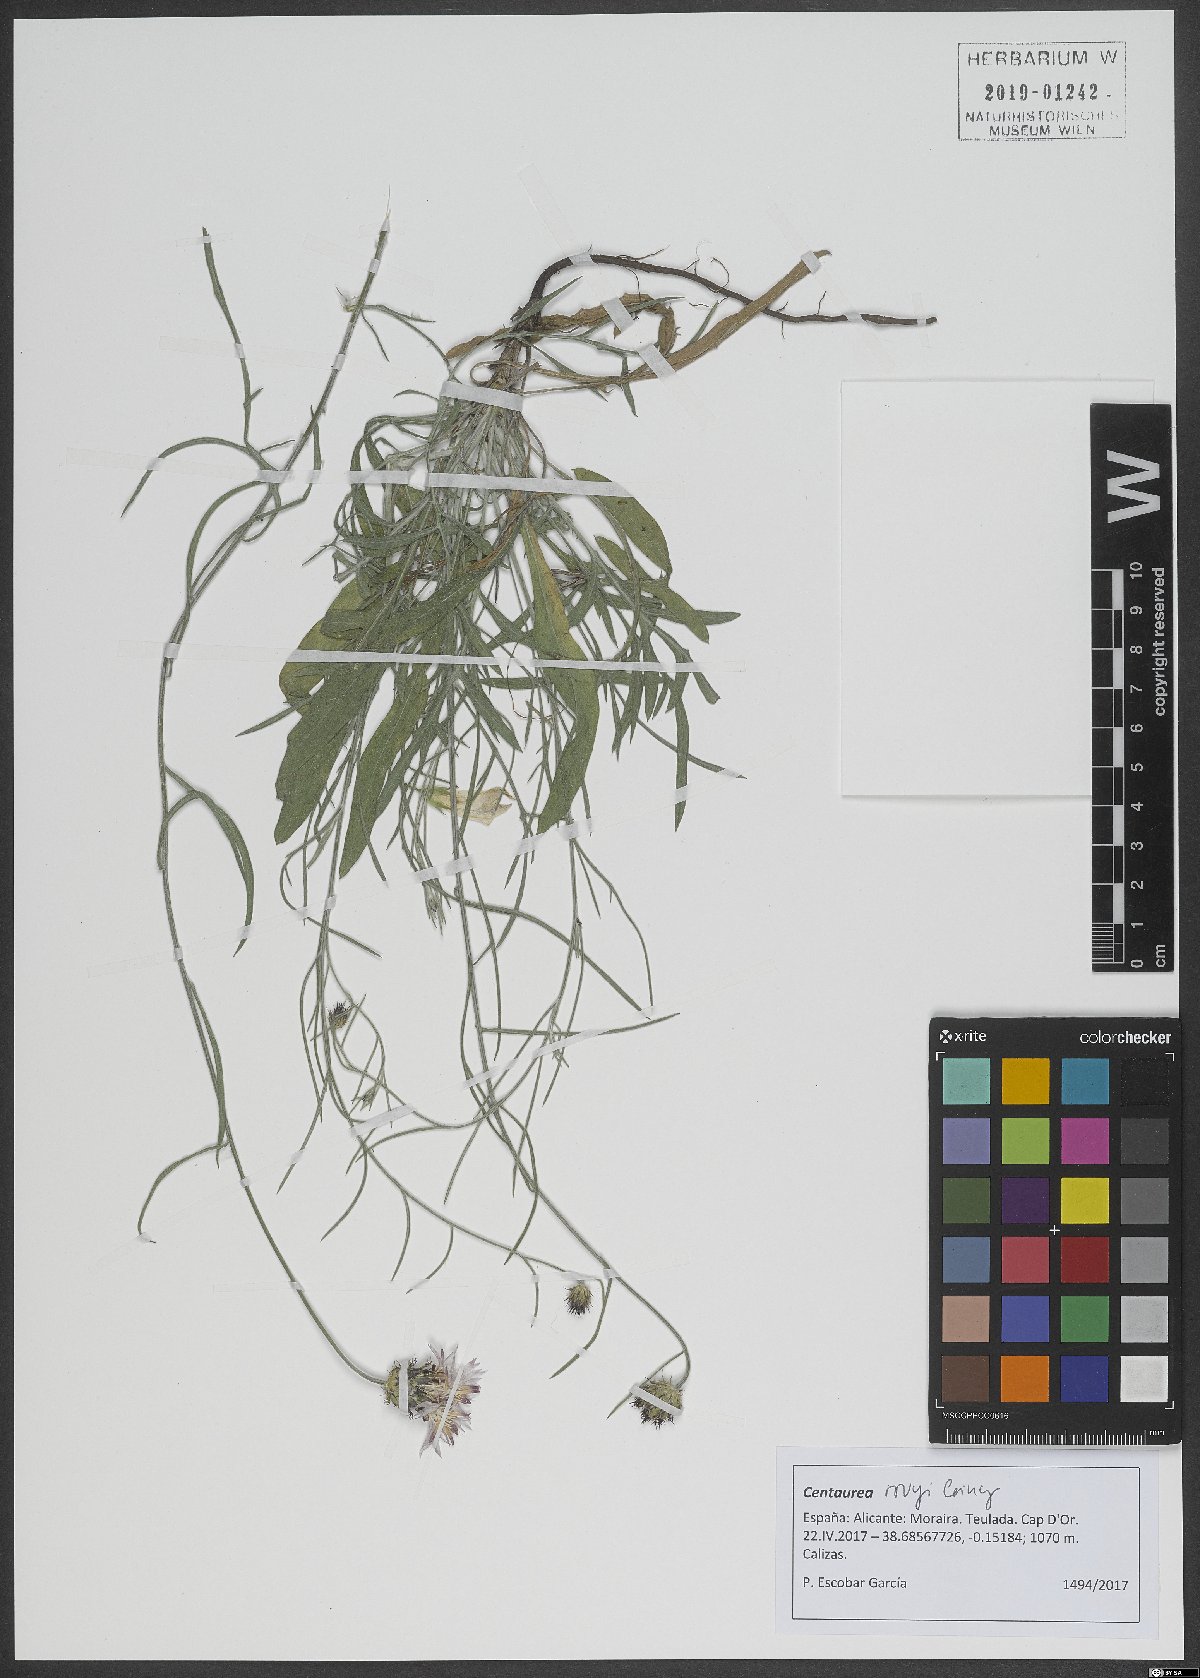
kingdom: Plantae
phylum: Tracheophyta
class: Magnoliopsida
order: Asterales
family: Asteraceae
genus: Centaurea
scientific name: Centaurea rouyi
